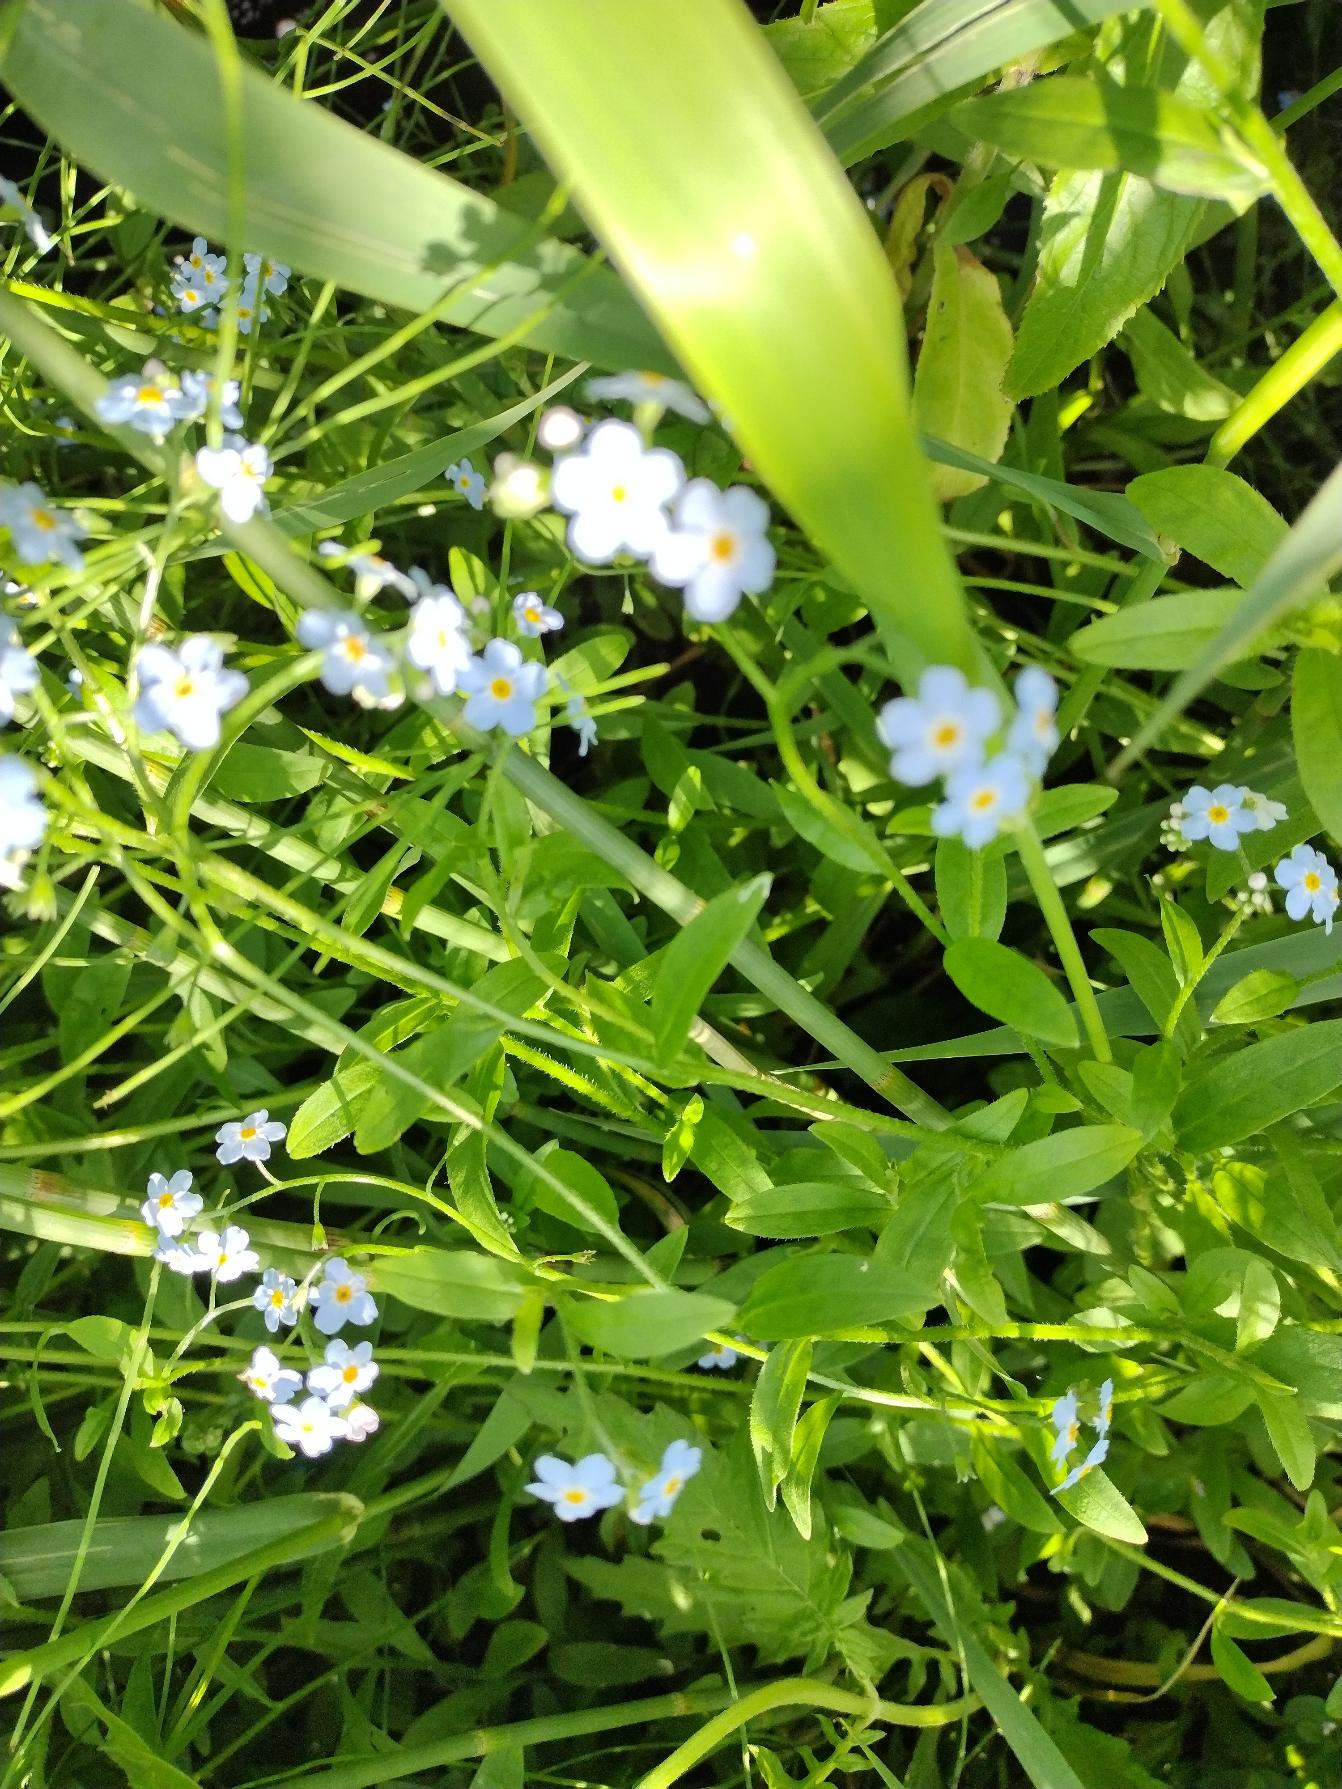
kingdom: Plantae
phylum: Tracheophyta
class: Magnoliopsida
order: Boraginales
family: Boraginaceae
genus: Myosotis
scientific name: Myosotis scorpioides
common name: Eng-forglemmigej
